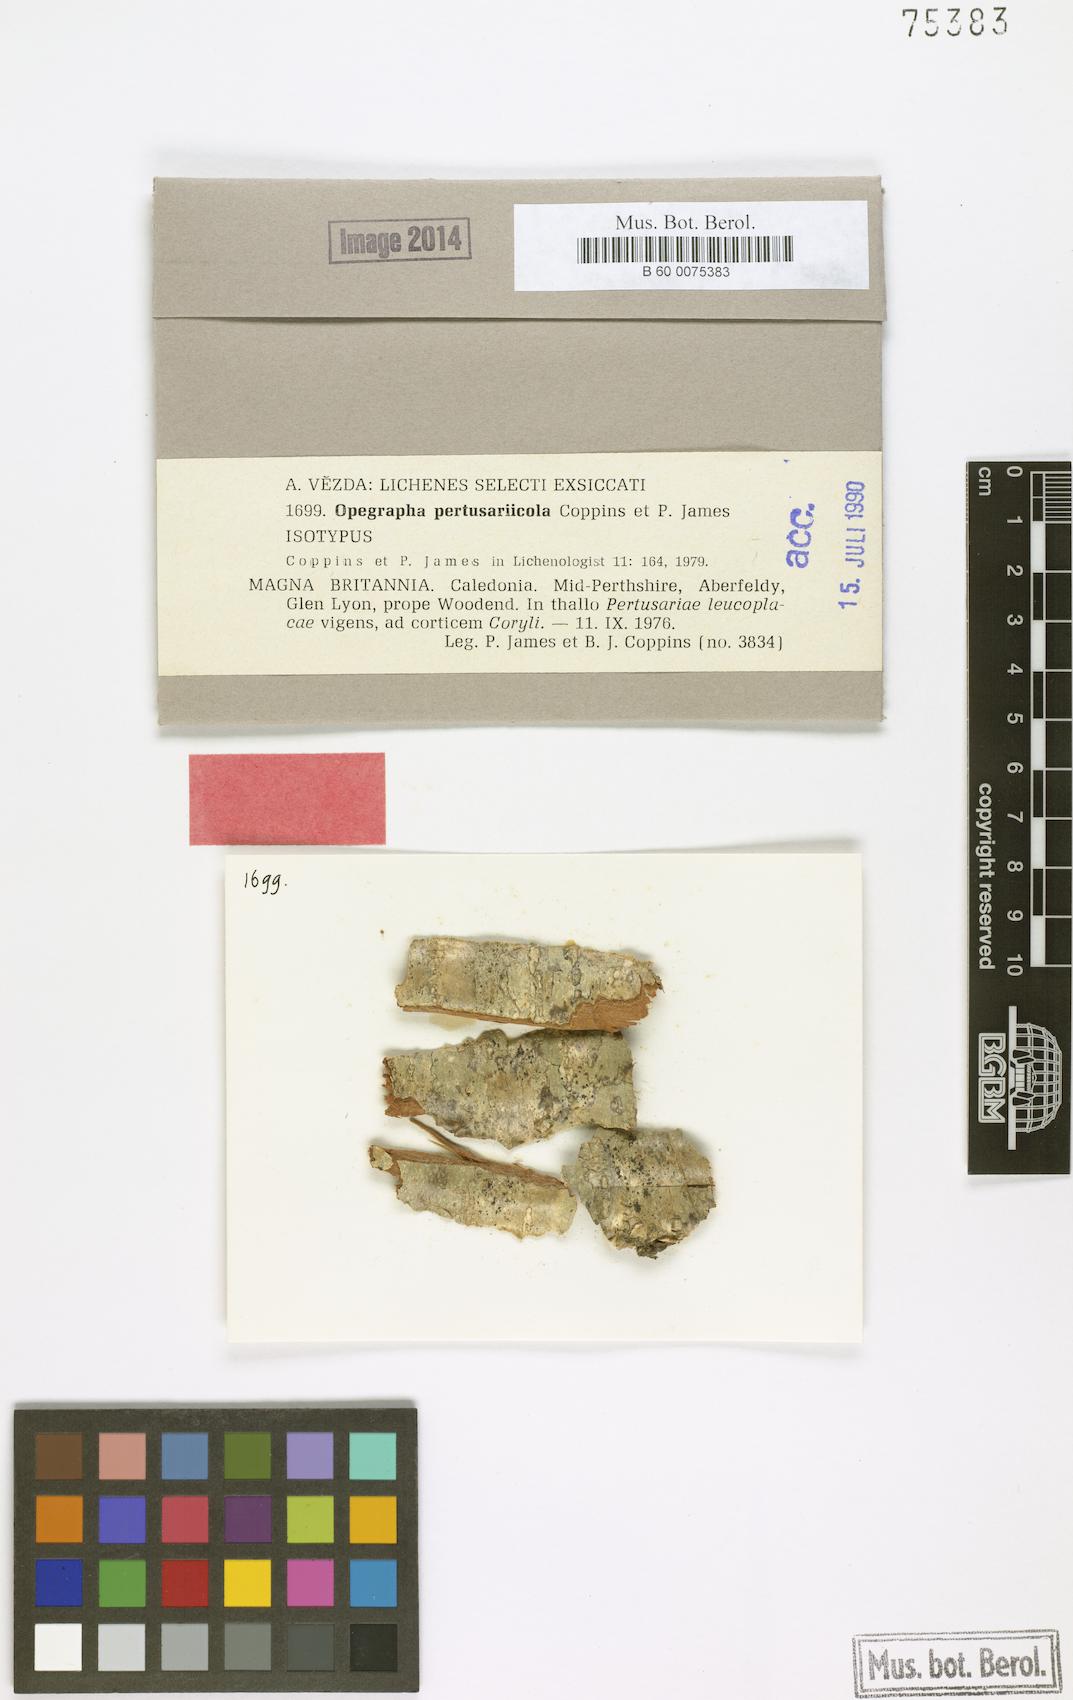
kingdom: Fungi
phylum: Ascomycota
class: Arthoniomycetes
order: Arthoniales
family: Opegraphaceae
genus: Opegrapha
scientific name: Opegrapha pertusariicola
